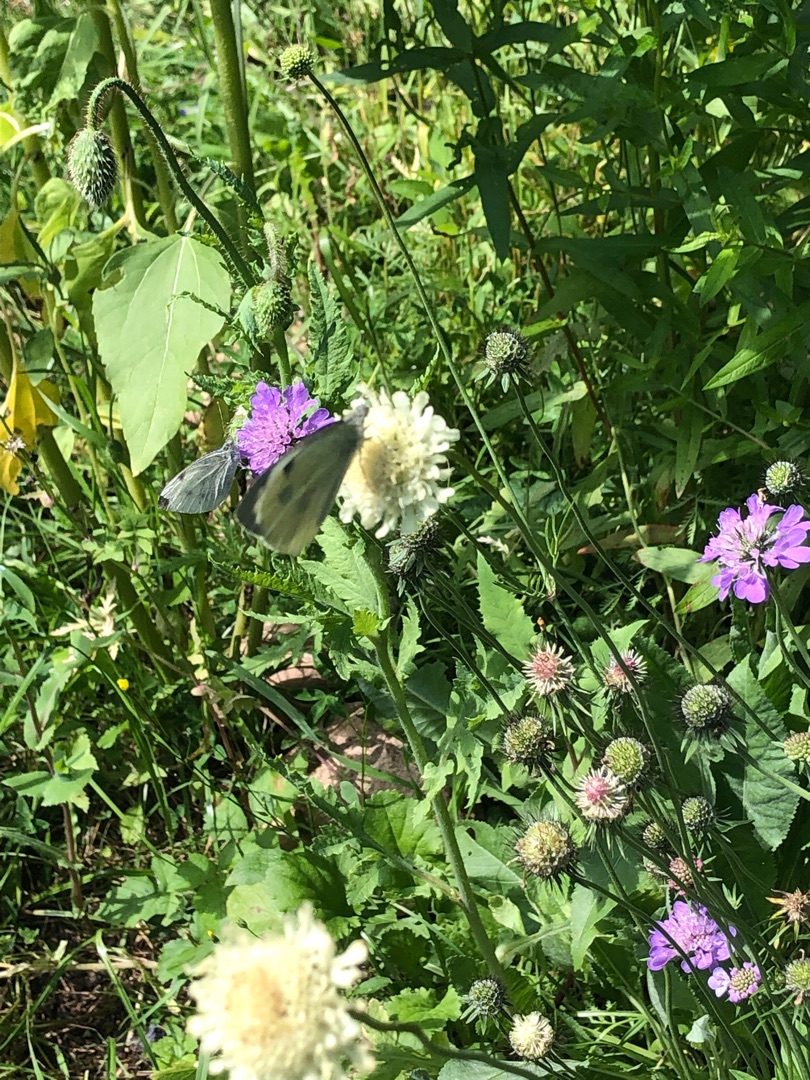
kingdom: Animalia
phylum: Arthropoda
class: Insecta
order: Lepidoptera
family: Pieridae
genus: Pieris
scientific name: Pieris brassicae
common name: Stor kålsommerfugl
